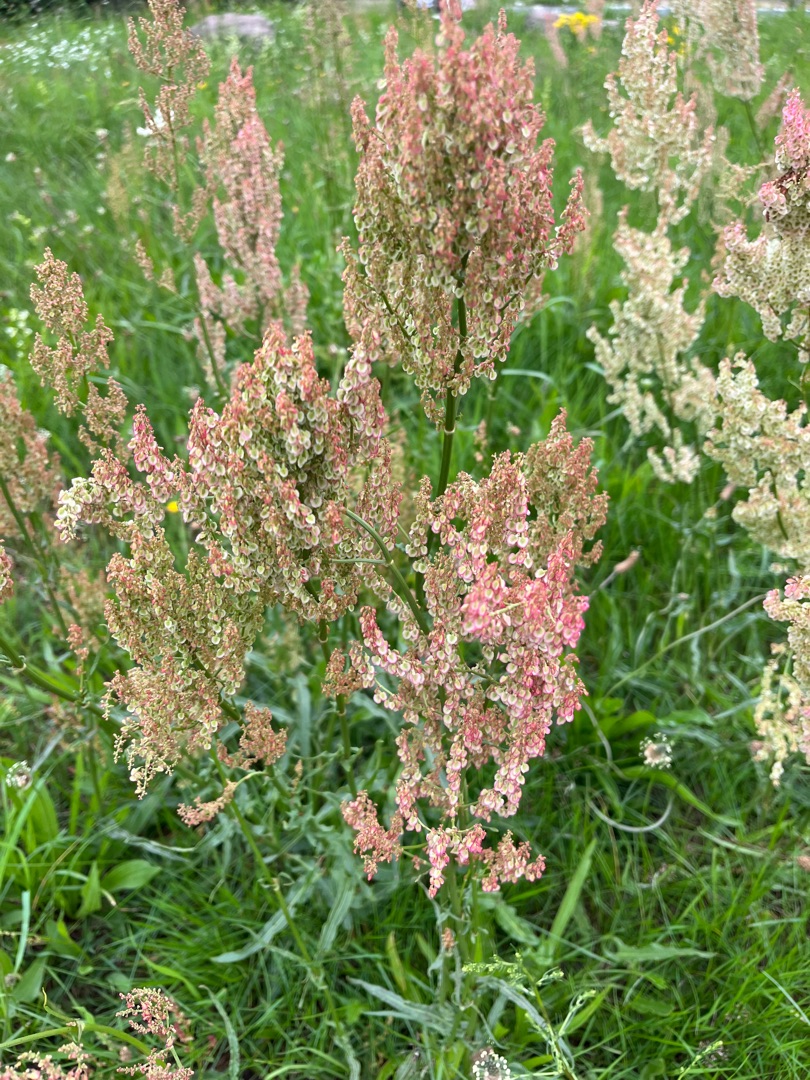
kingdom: Plantae
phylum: Tracheophyta
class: Magnoliopsida
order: Caryophyllales
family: Polygonaceae
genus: Rumex
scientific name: Rumex thyrsiflorus
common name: Dusk-syre
